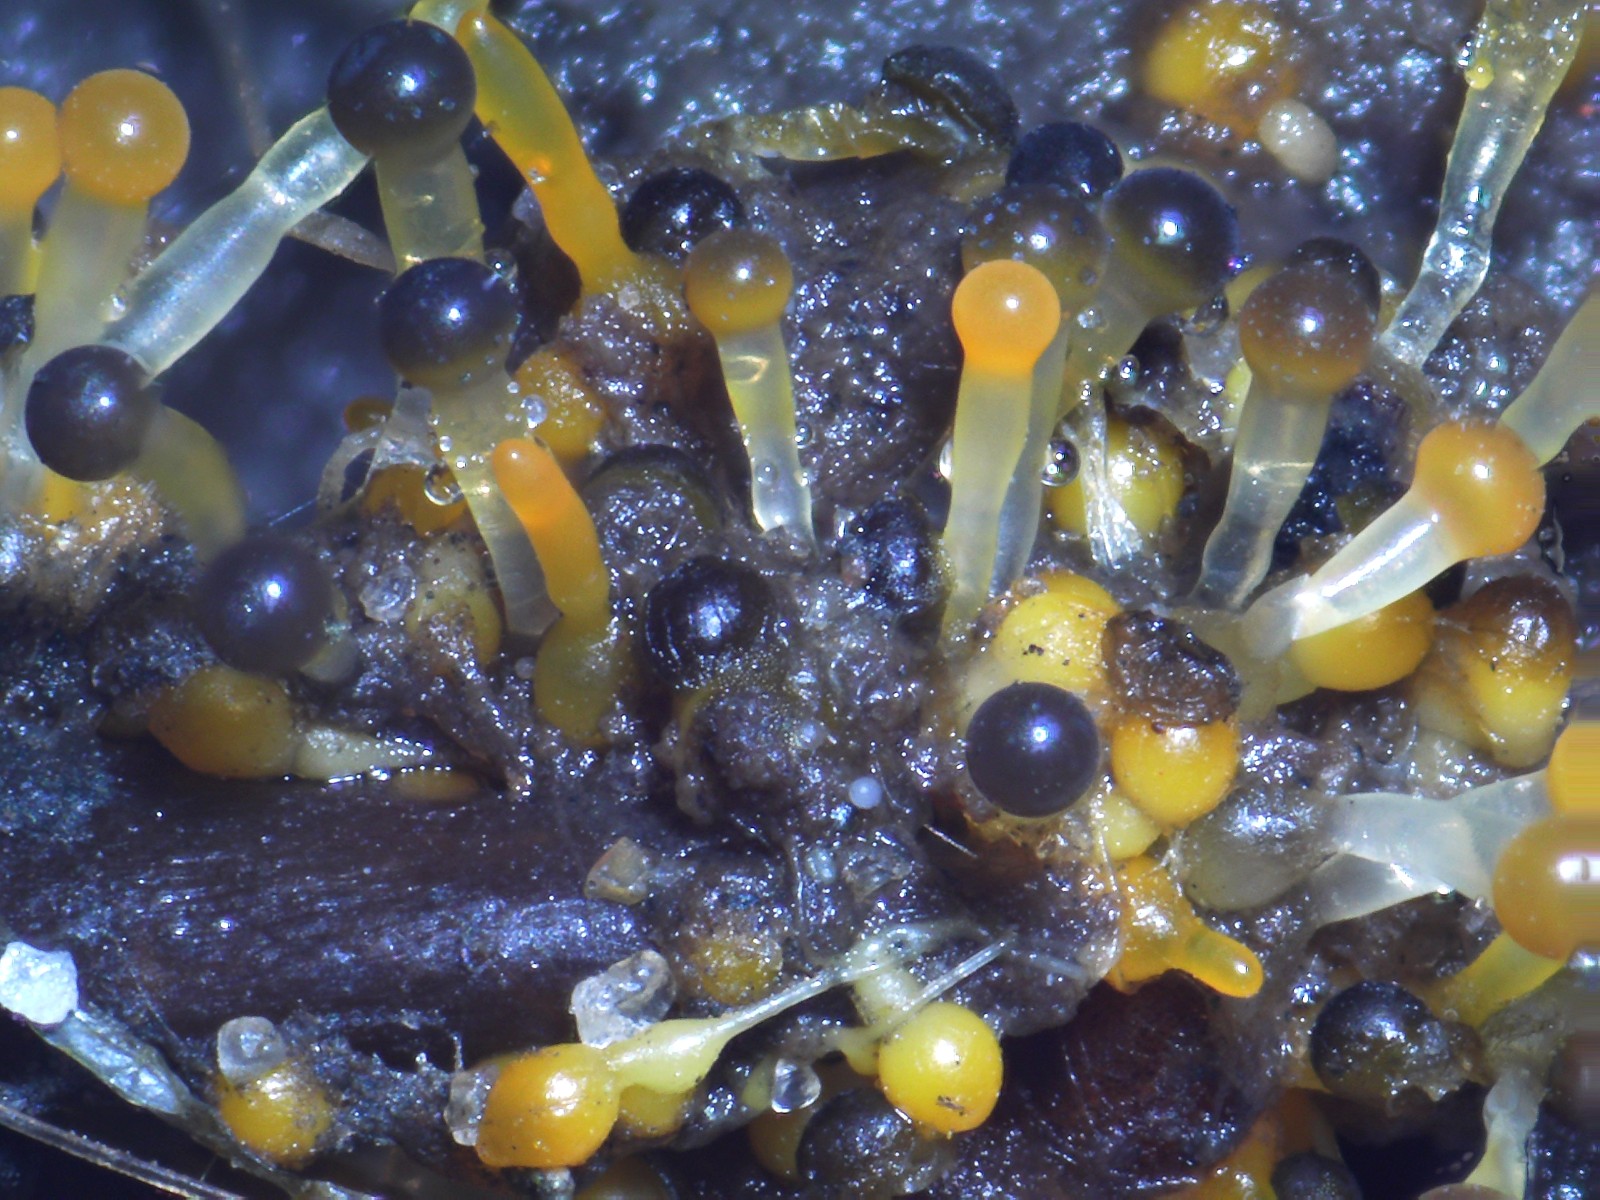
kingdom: Fungi
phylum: Mucoromycota
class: Mucoromycetes
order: Mucorales
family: Pilobolaceae
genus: Pilobolus
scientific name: Pilobolus
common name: boldkaster
